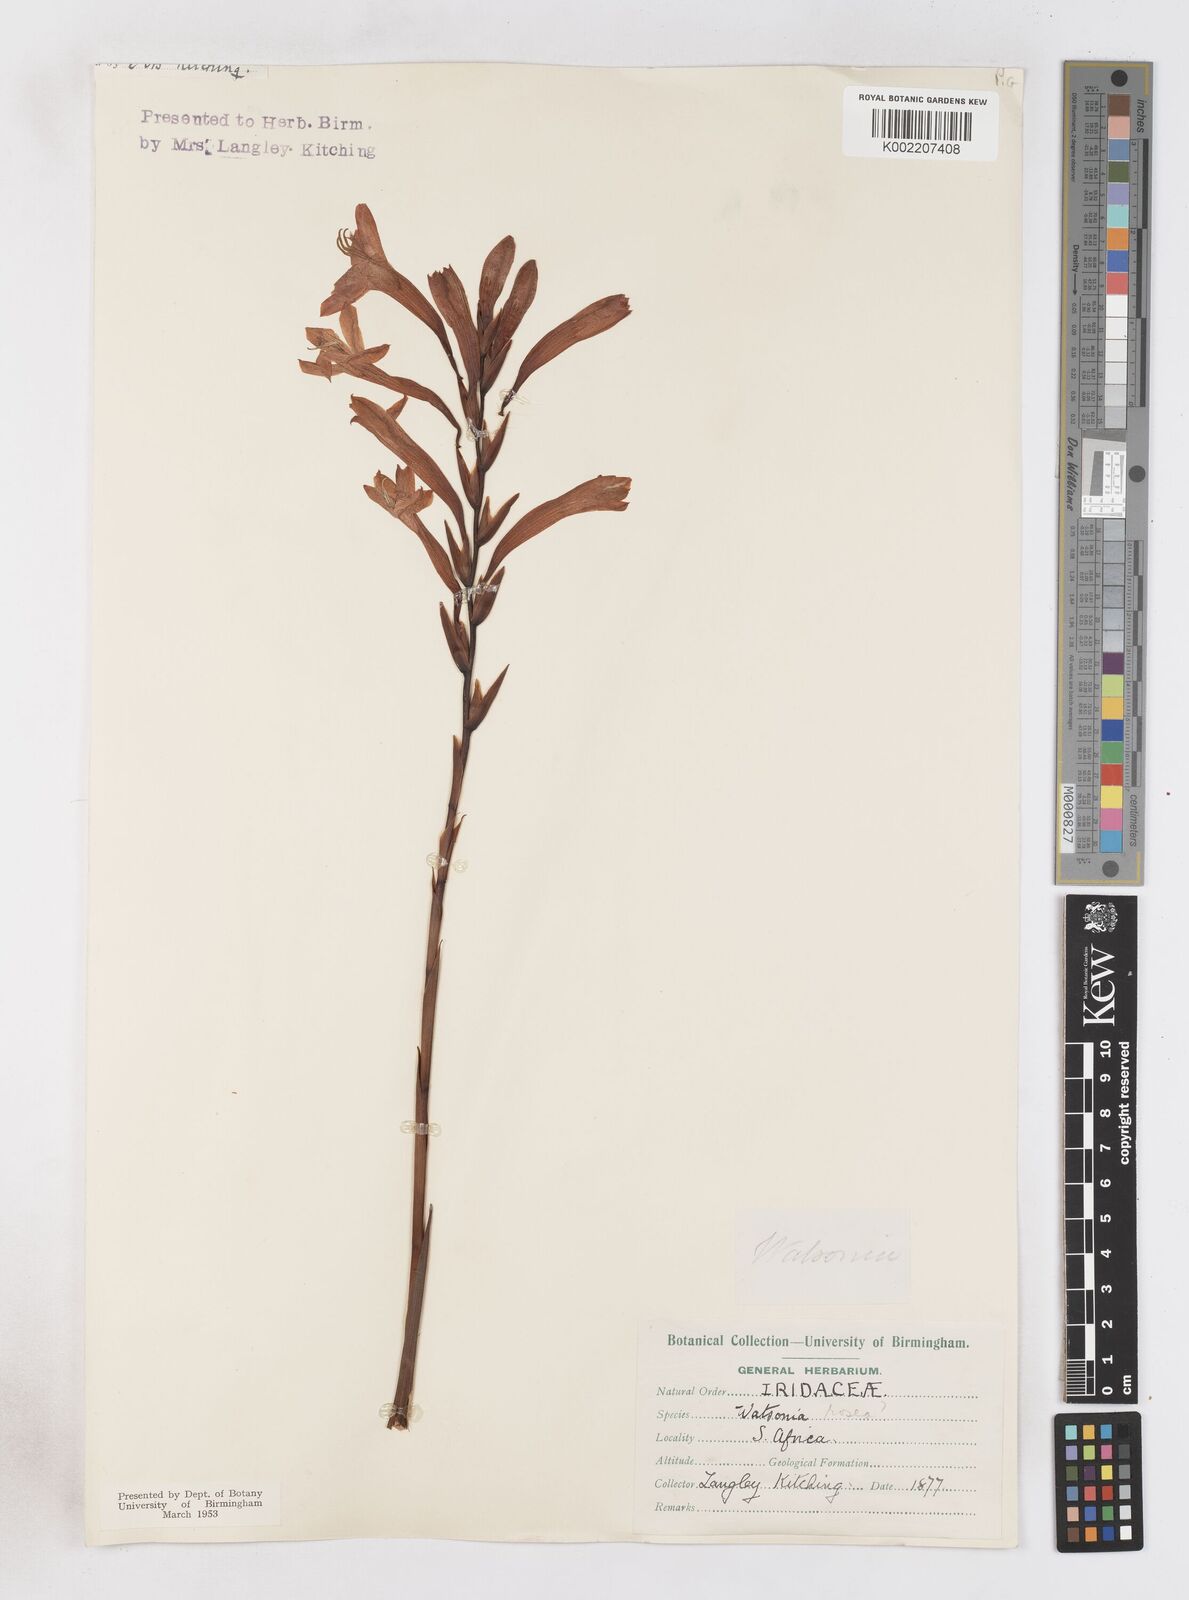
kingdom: Plantae
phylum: Tracheophyta
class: Liliopsida
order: Asparagales
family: Iridaceae
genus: Watsonia
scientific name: Watsonia pillansii
